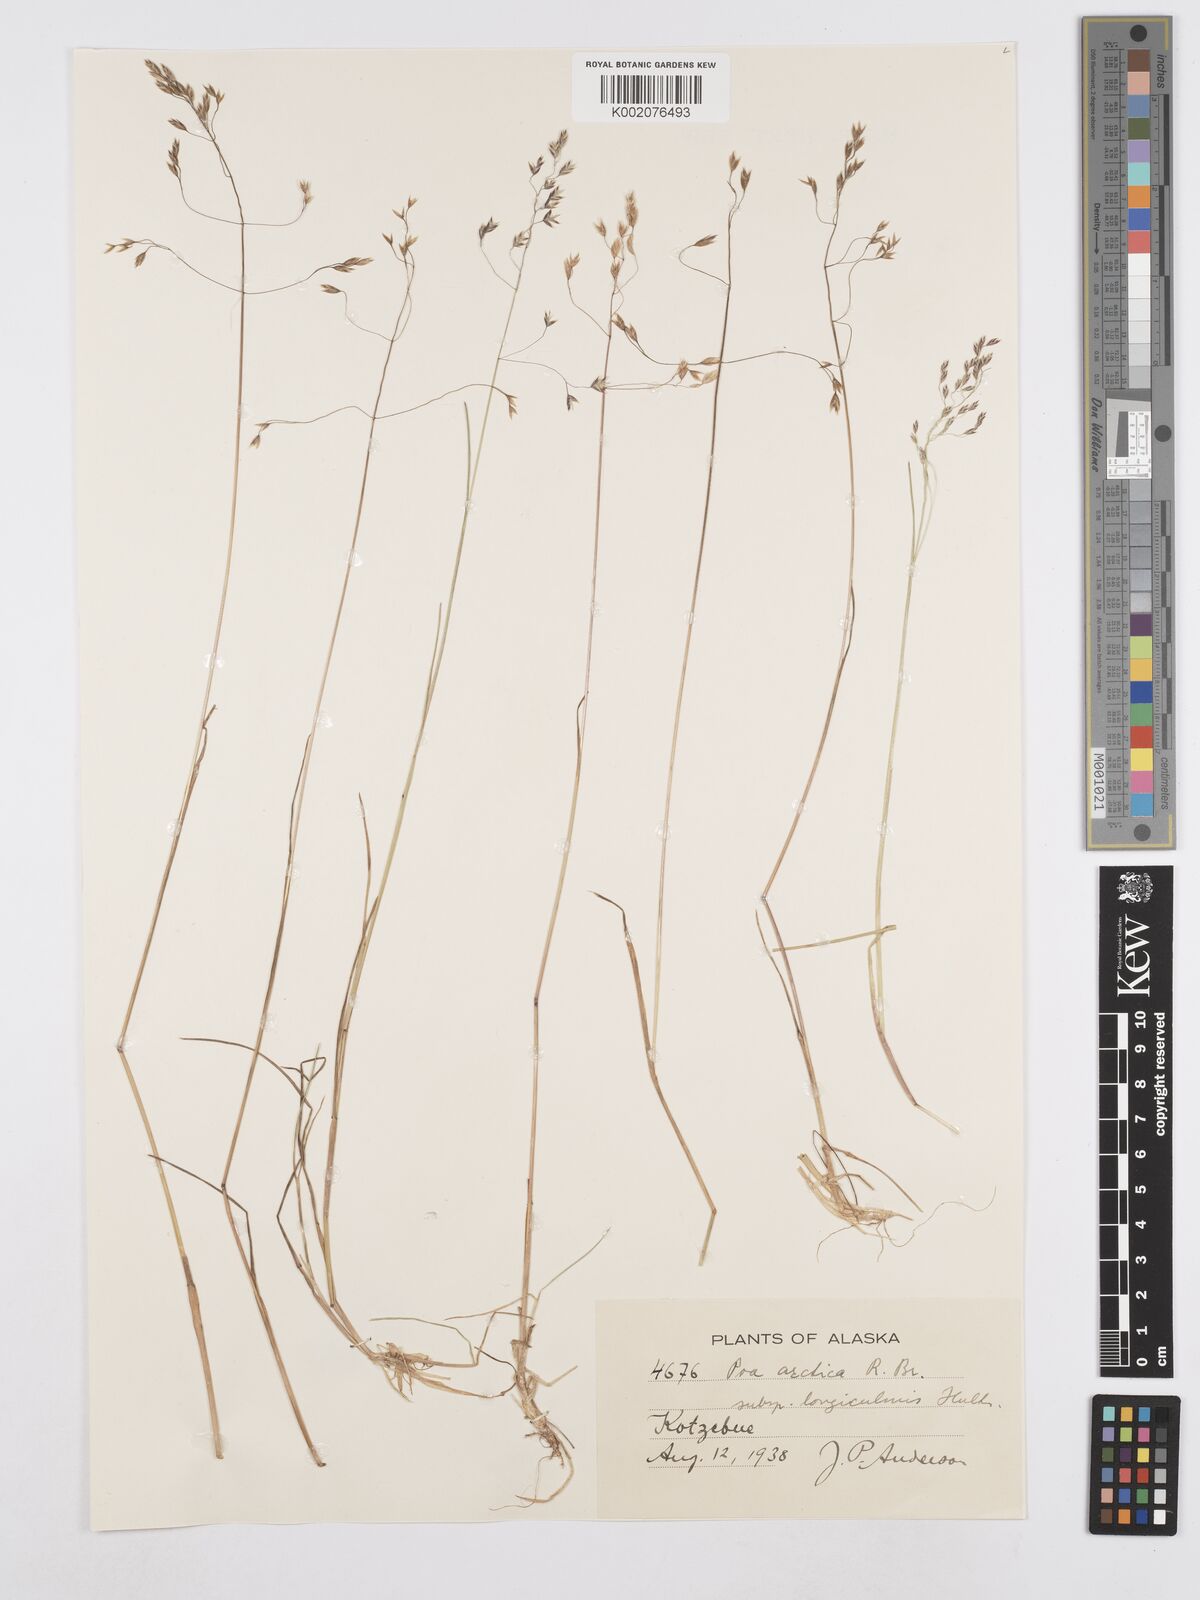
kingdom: Plantae
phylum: Tracheophyta
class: Liliopsida
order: Poales
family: Poaceae
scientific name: Poaceae
